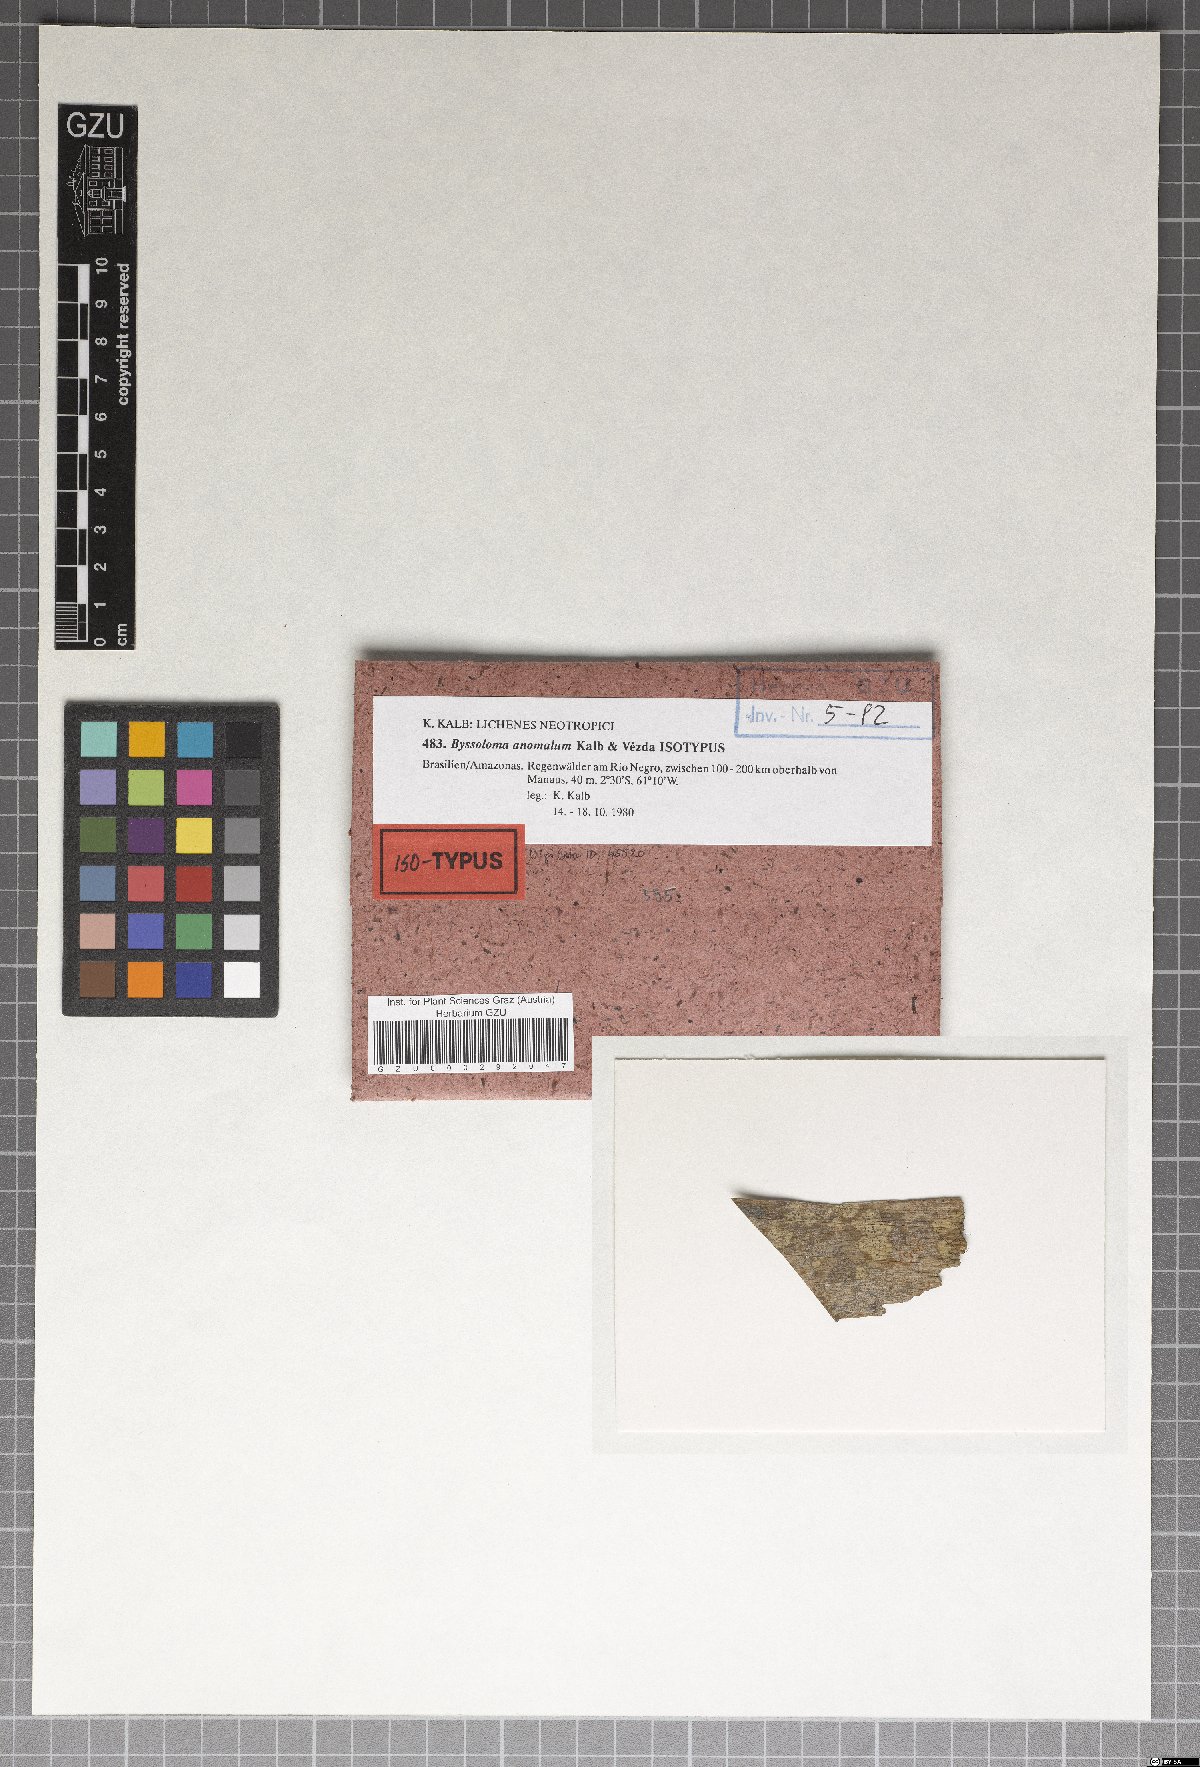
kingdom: Fungi
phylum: Ascomycota
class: Lecanoromycetes
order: Lecanorales
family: Byssolomataceae
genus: Byssoloma
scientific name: Byssoloma anomalum
